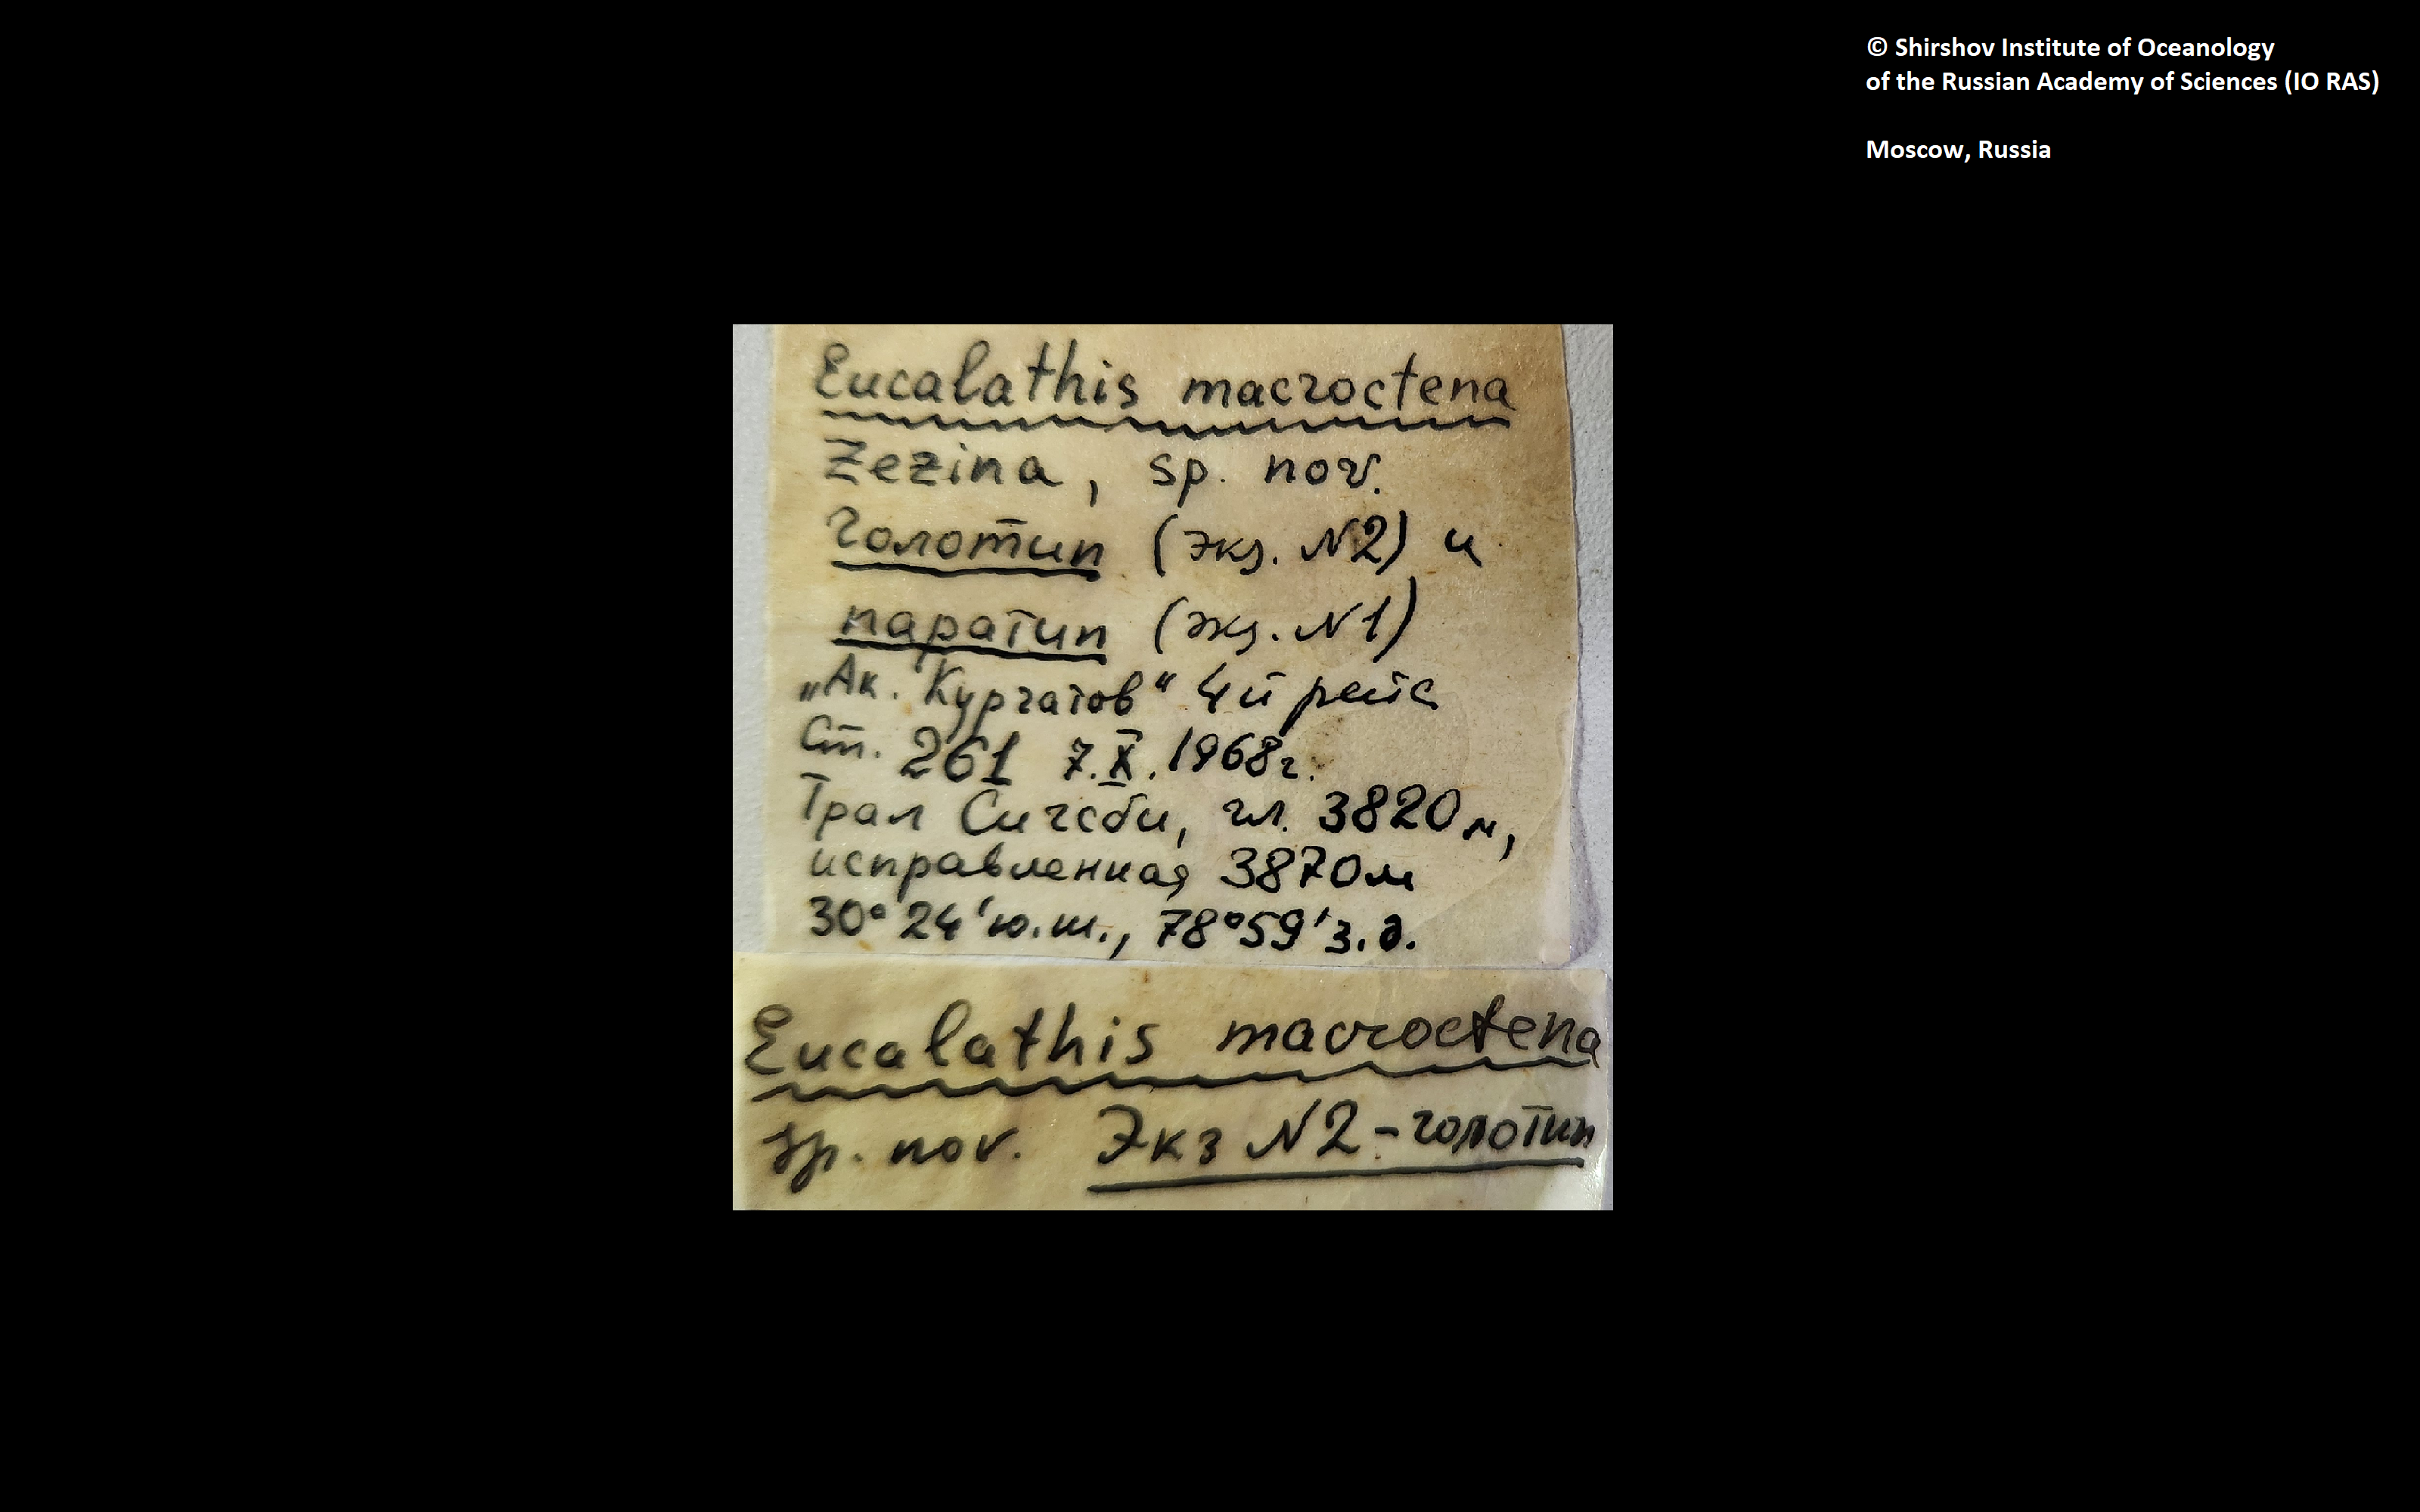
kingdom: Animalia
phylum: Brachiopoda
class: Rhynchonellata
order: Terebratulida
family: Chlidonophoridae
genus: Melvicalathis
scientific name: Melvicalathis macroctena
